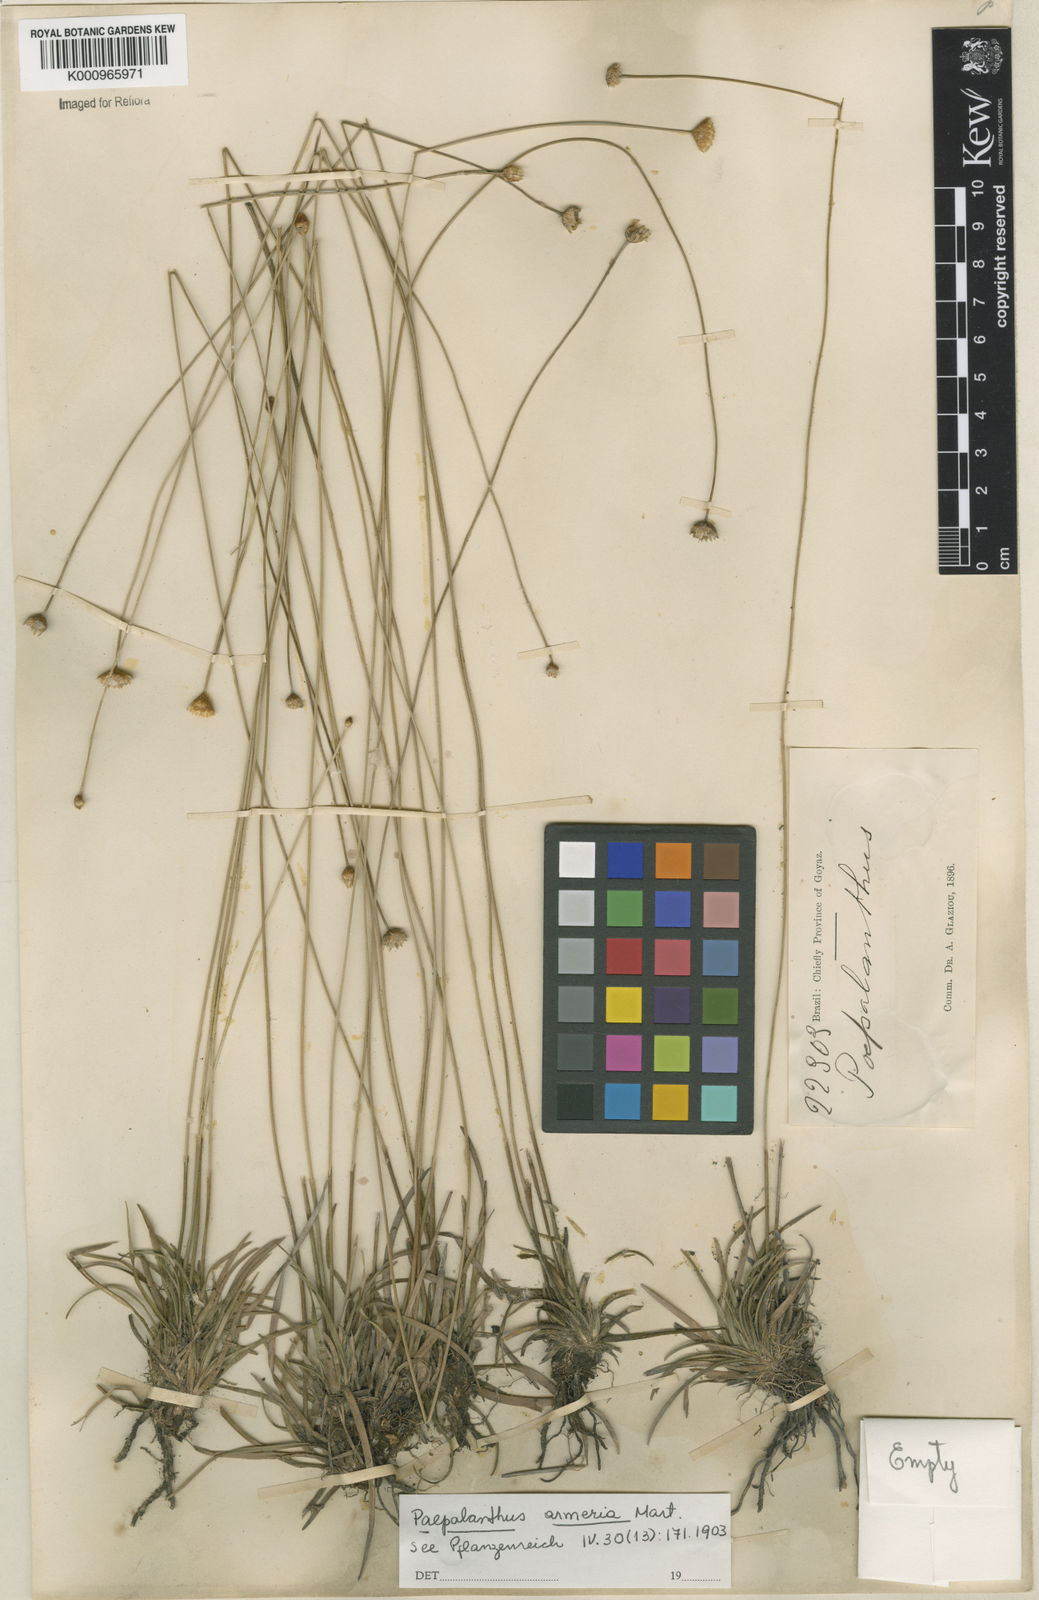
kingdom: Plantae
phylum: Tracheophyta
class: Liliopsida
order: Poales
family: Eriocaulaceae
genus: Paepalanthus
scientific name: Paepalanthus
